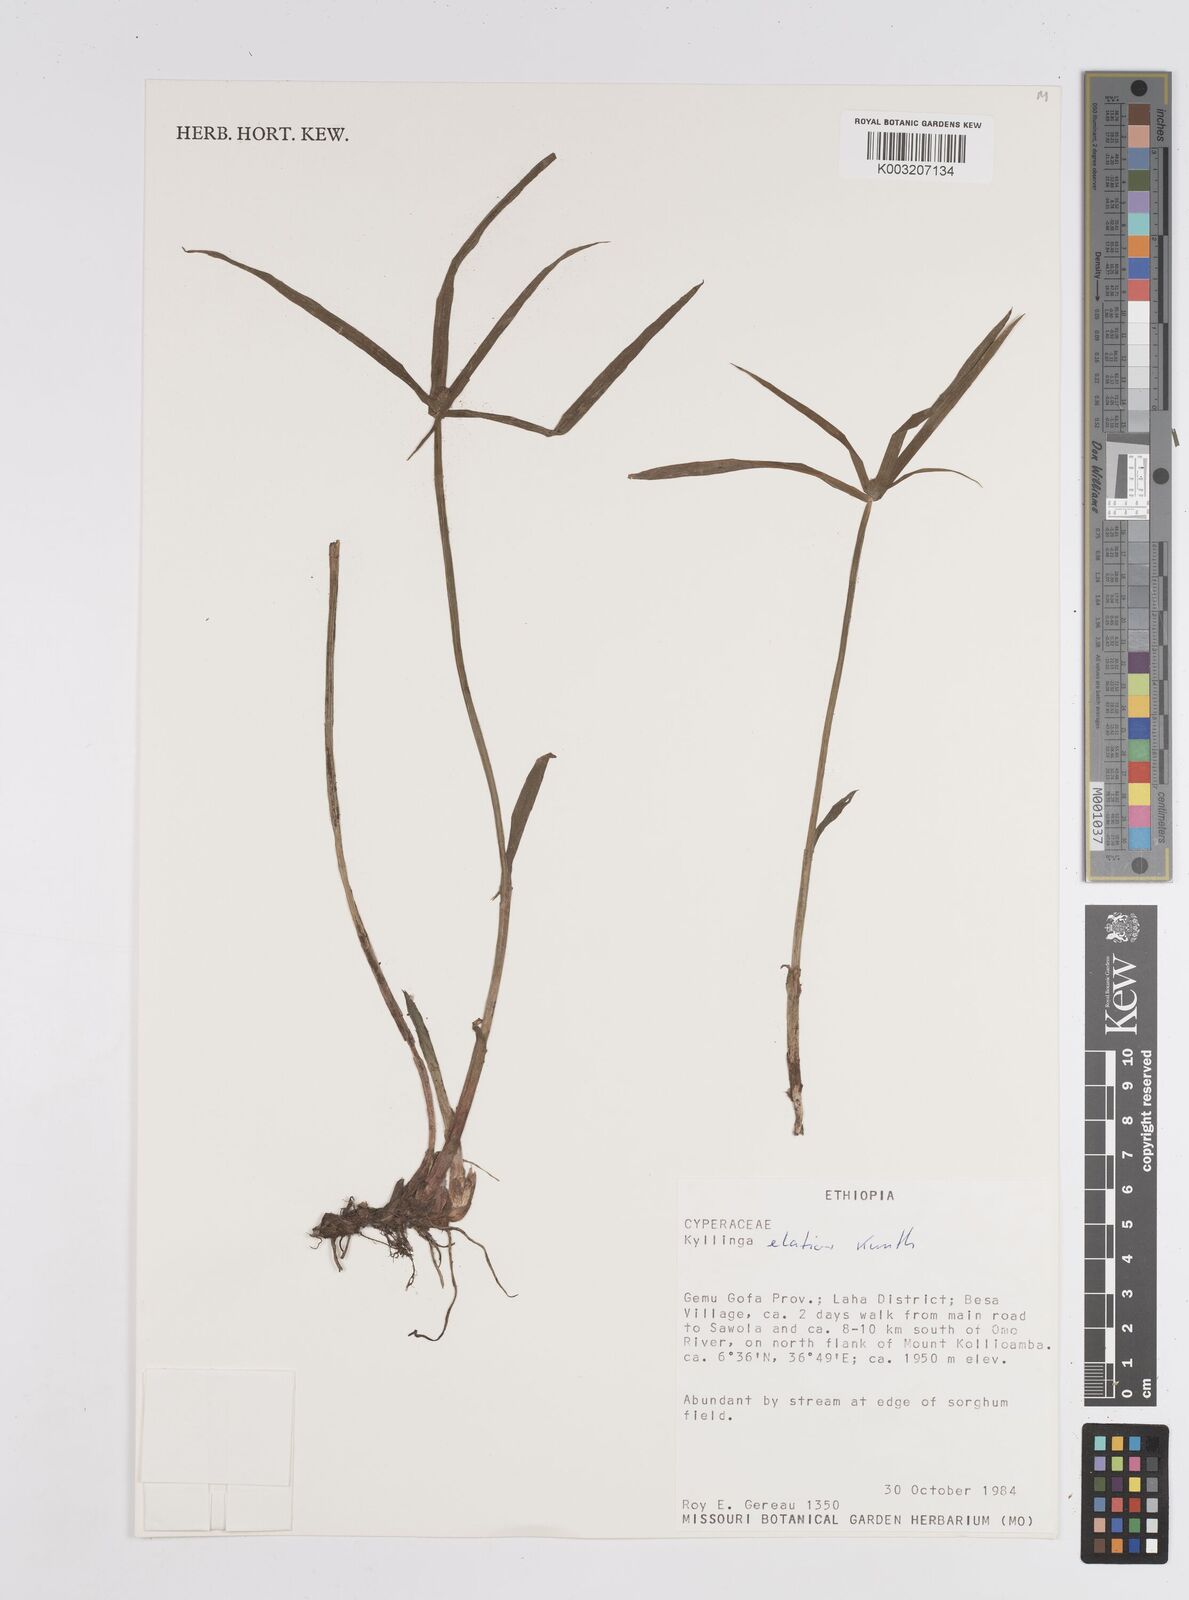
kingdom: Plantae
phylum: Tracheophyta
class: Liliopsida
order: Poales
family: Cyperaceae
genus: Cyperus
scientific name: Cyperus
